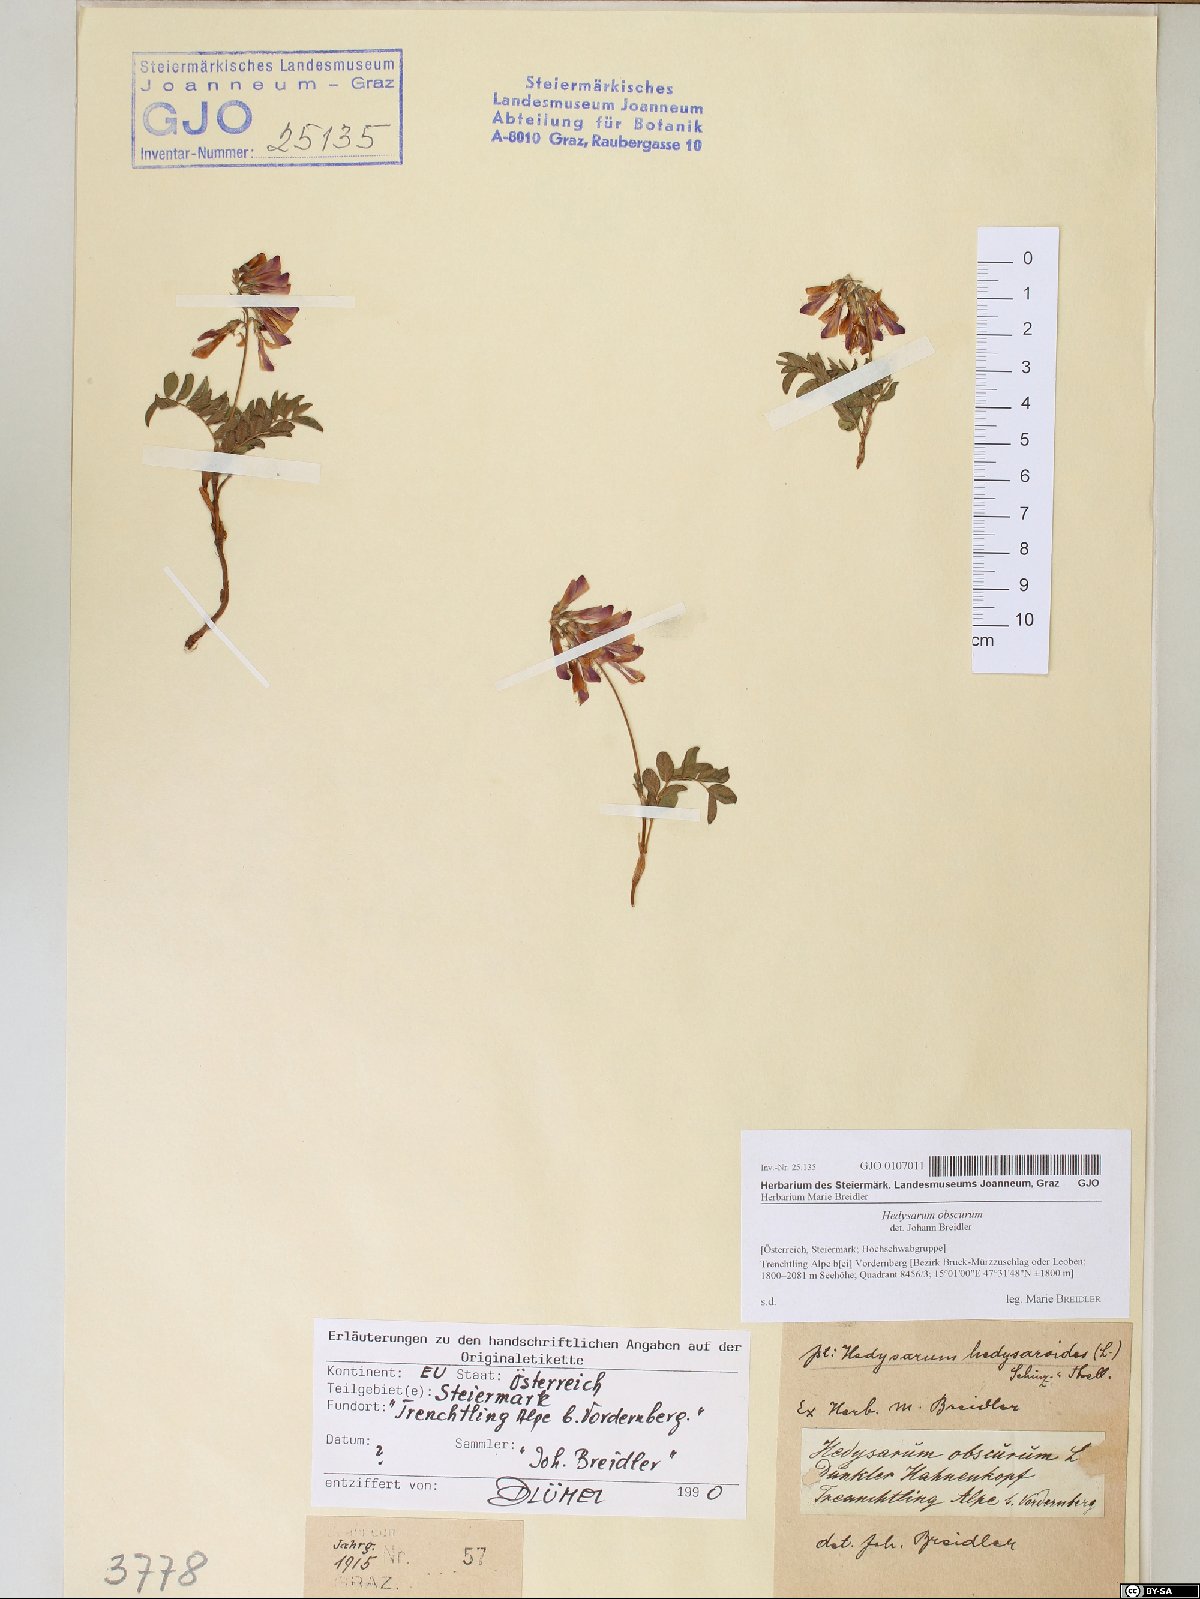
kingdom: Plantae
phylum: Tracheophyta
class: Magnoliopsida
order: Fabales
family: Fabaceae
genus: Hedysarum
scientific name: Hedysarum hedysaroides
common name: Alpine french-honeysuckle
